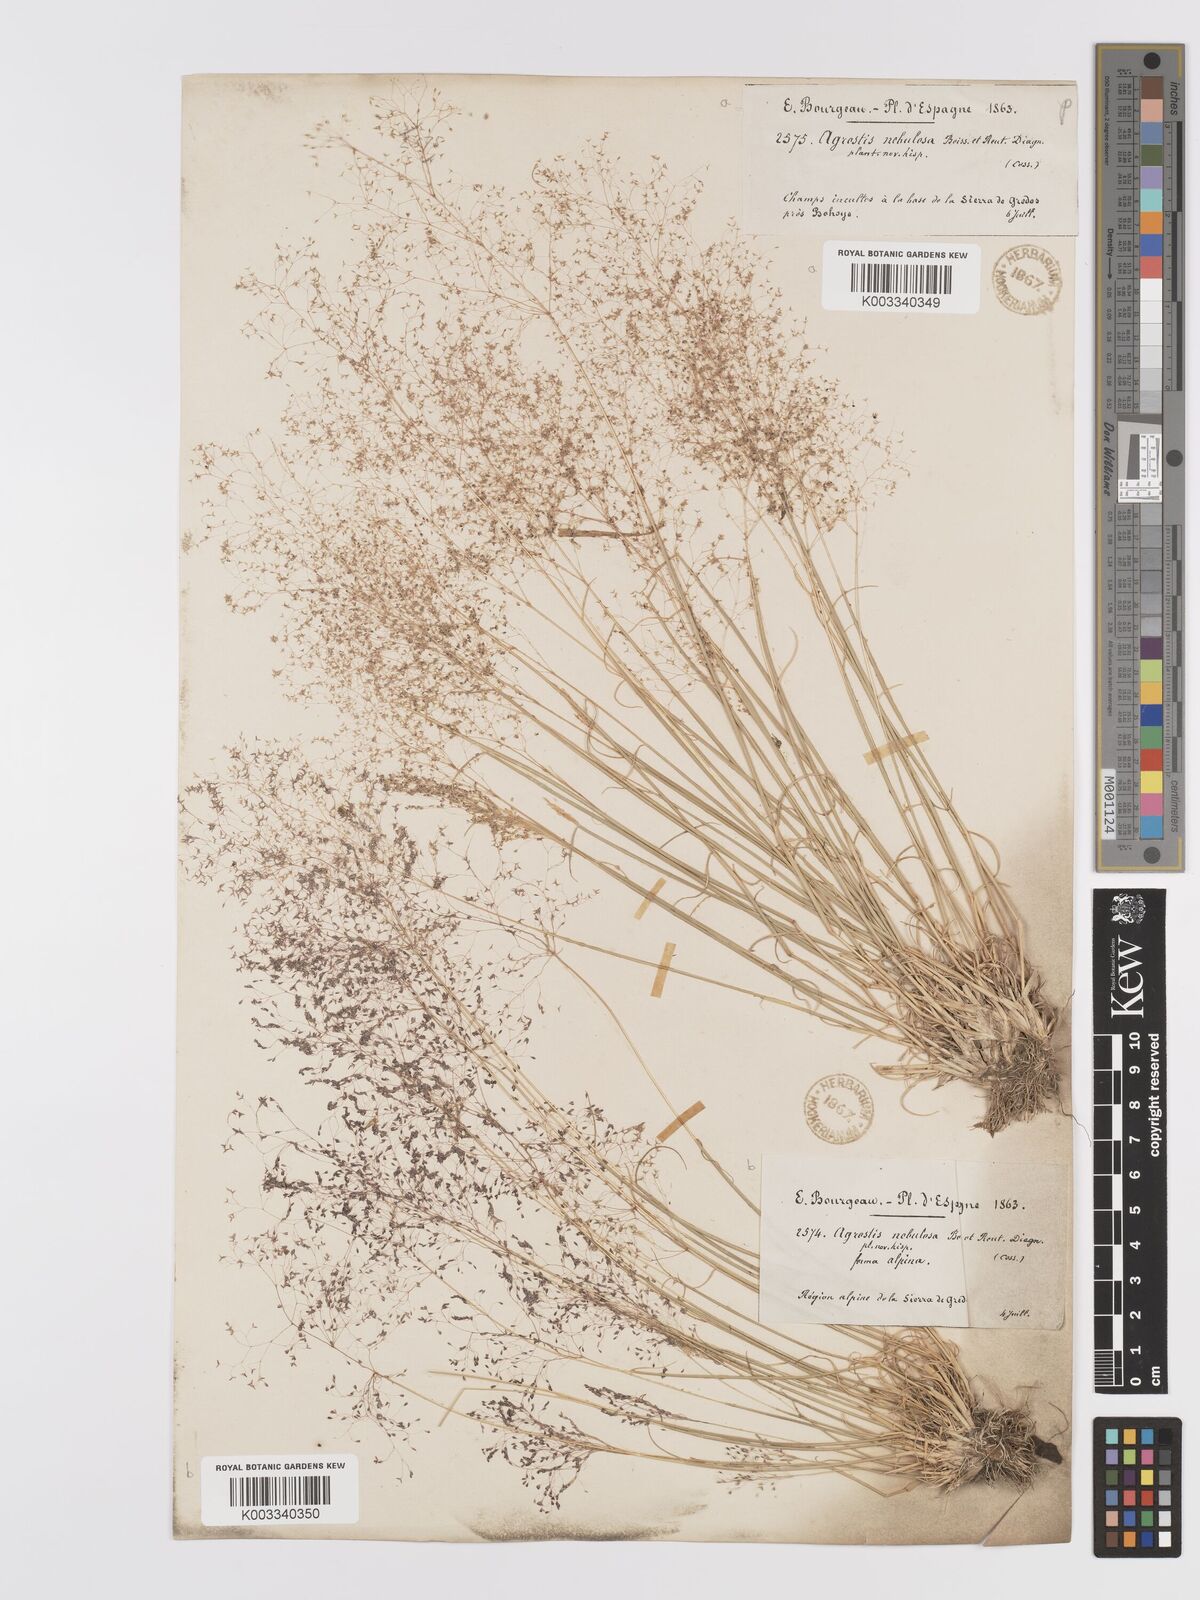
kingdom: Plantae
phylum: Tracheophyta
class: Liliopsida
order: Poales
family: Poaceae
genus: Agrostis
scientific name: Agrostis nebulosa
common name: Cloud grass
